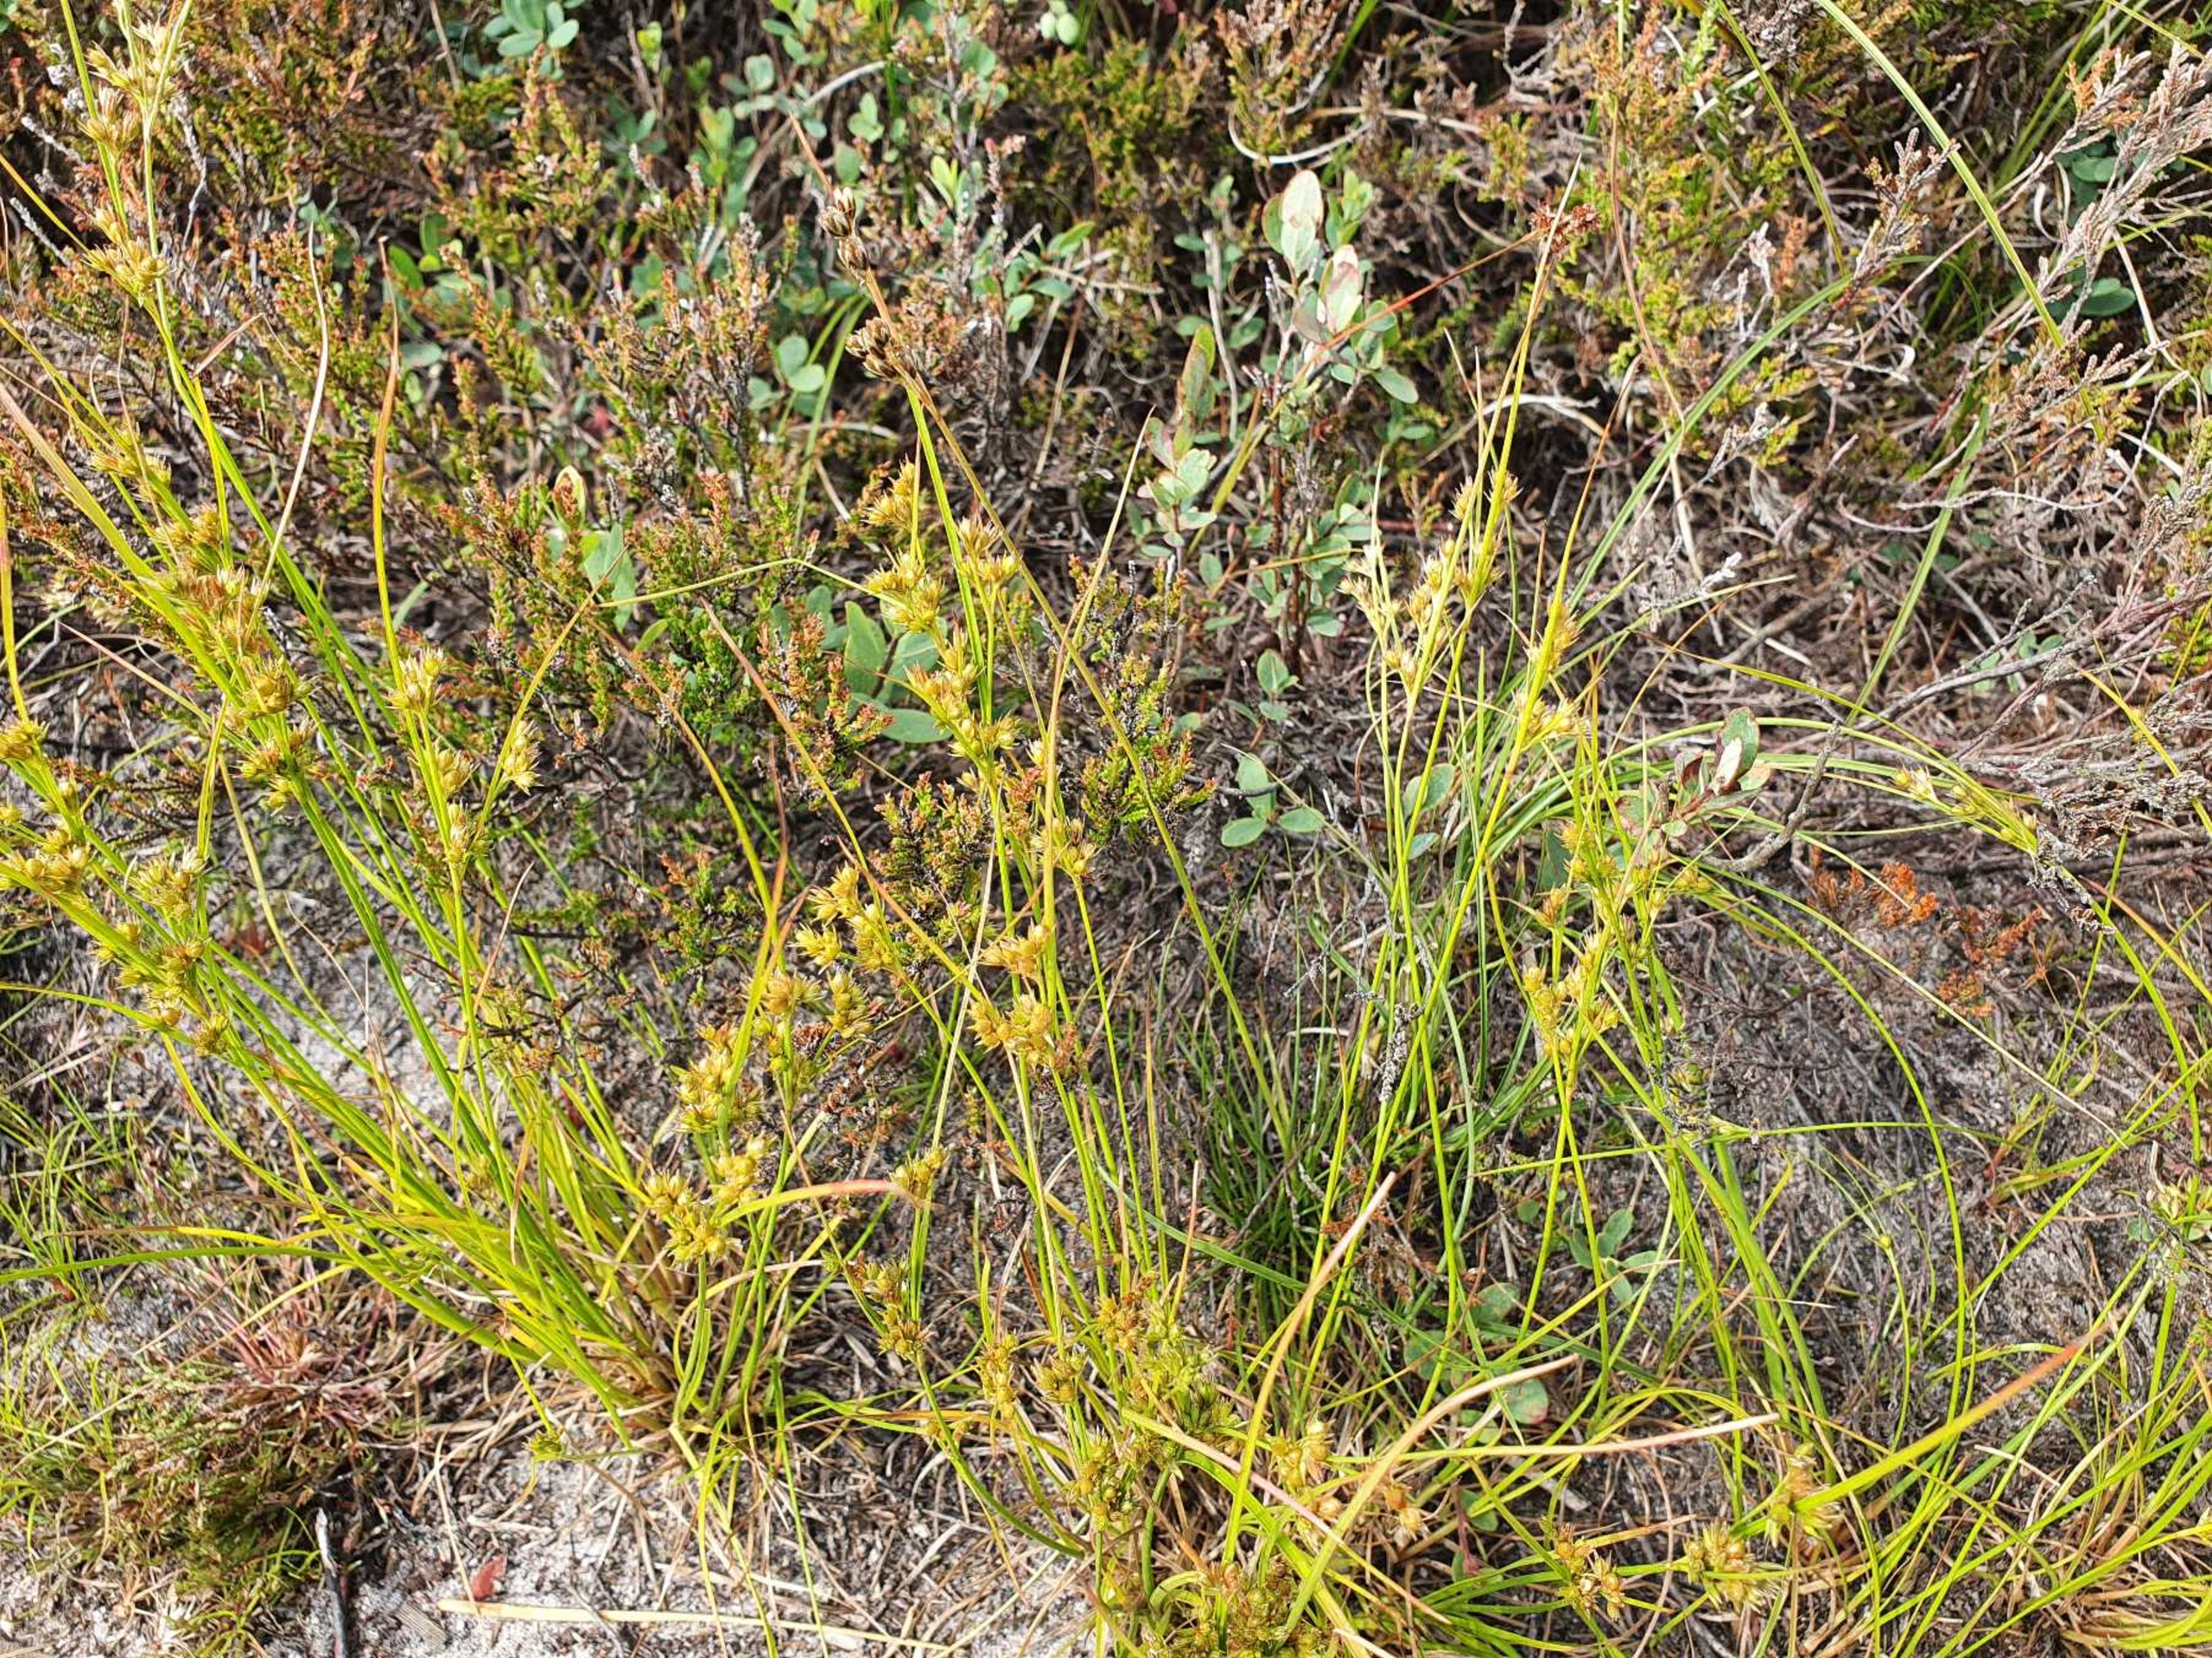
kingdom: Plantae
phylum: Tracheophyta
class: Liliopsida
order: Poales
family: Juncaceae
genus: Juncus
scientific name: Juncus tenuis
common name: Tue-siv
